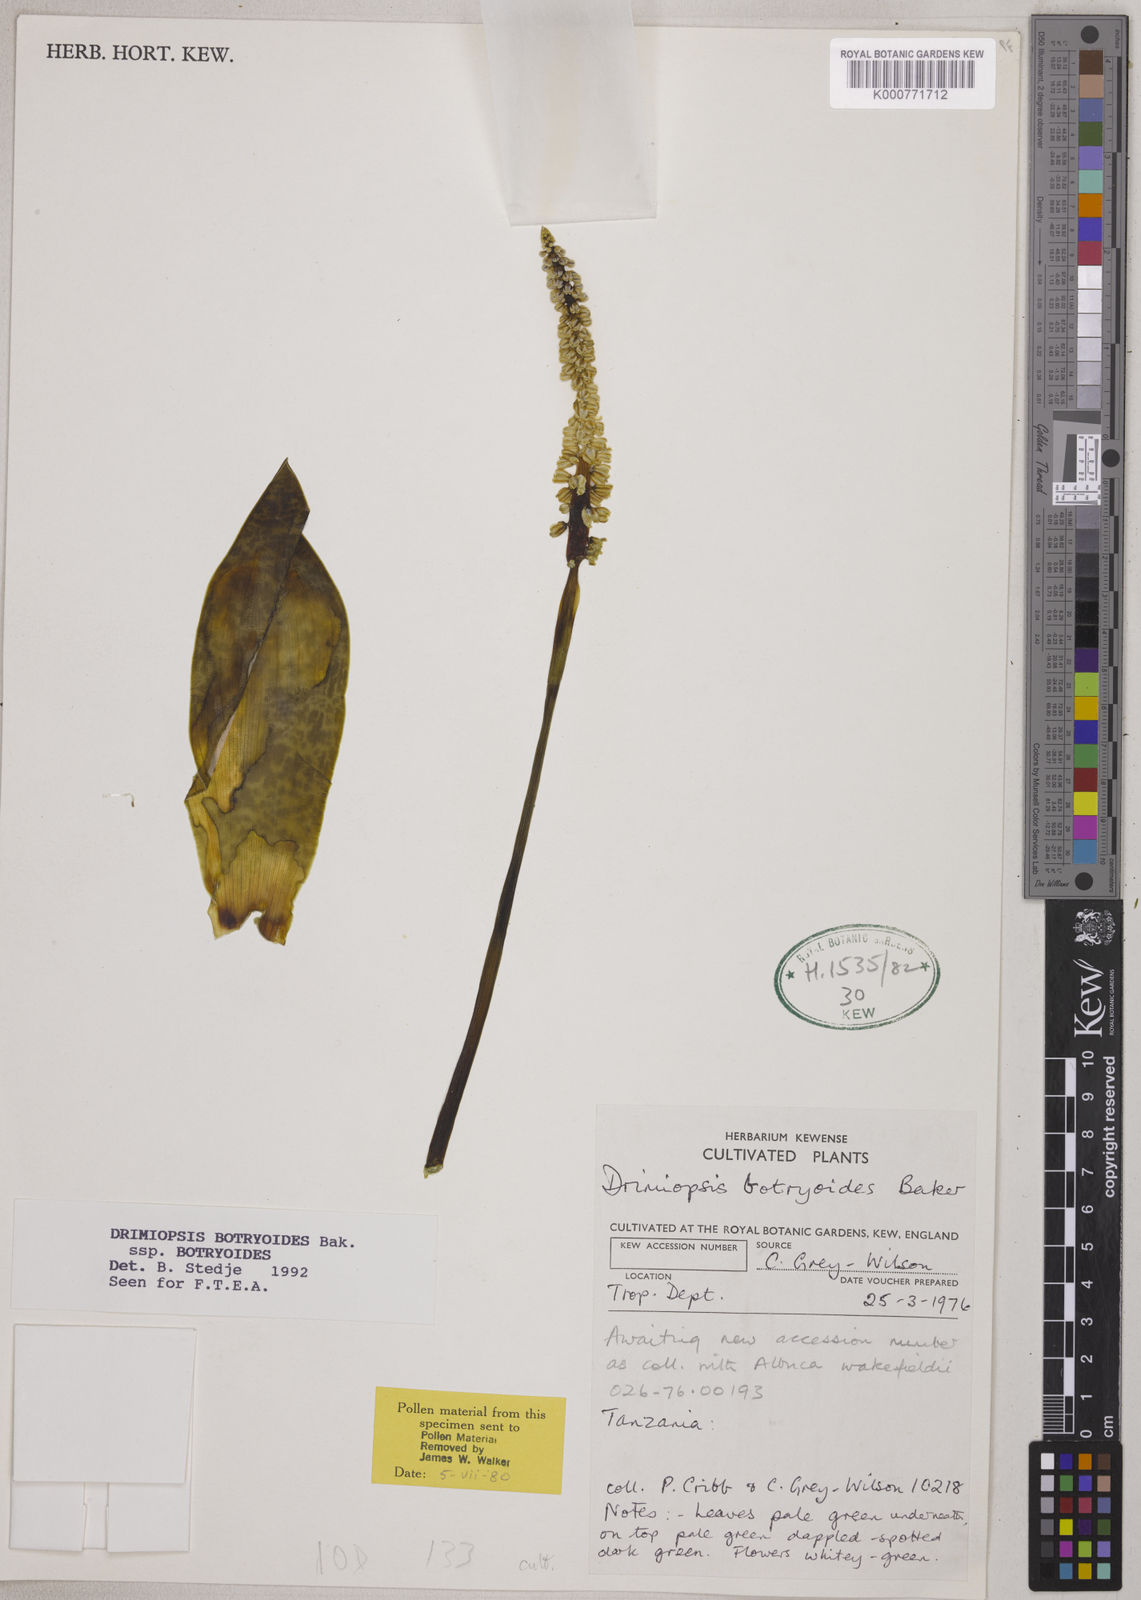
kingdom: Plantae
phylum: Tracheophyta
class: Liliopsida
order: Asparagales
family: Asparagaceae
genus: Drimiopsis
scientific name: Drimiopsis botryoides
